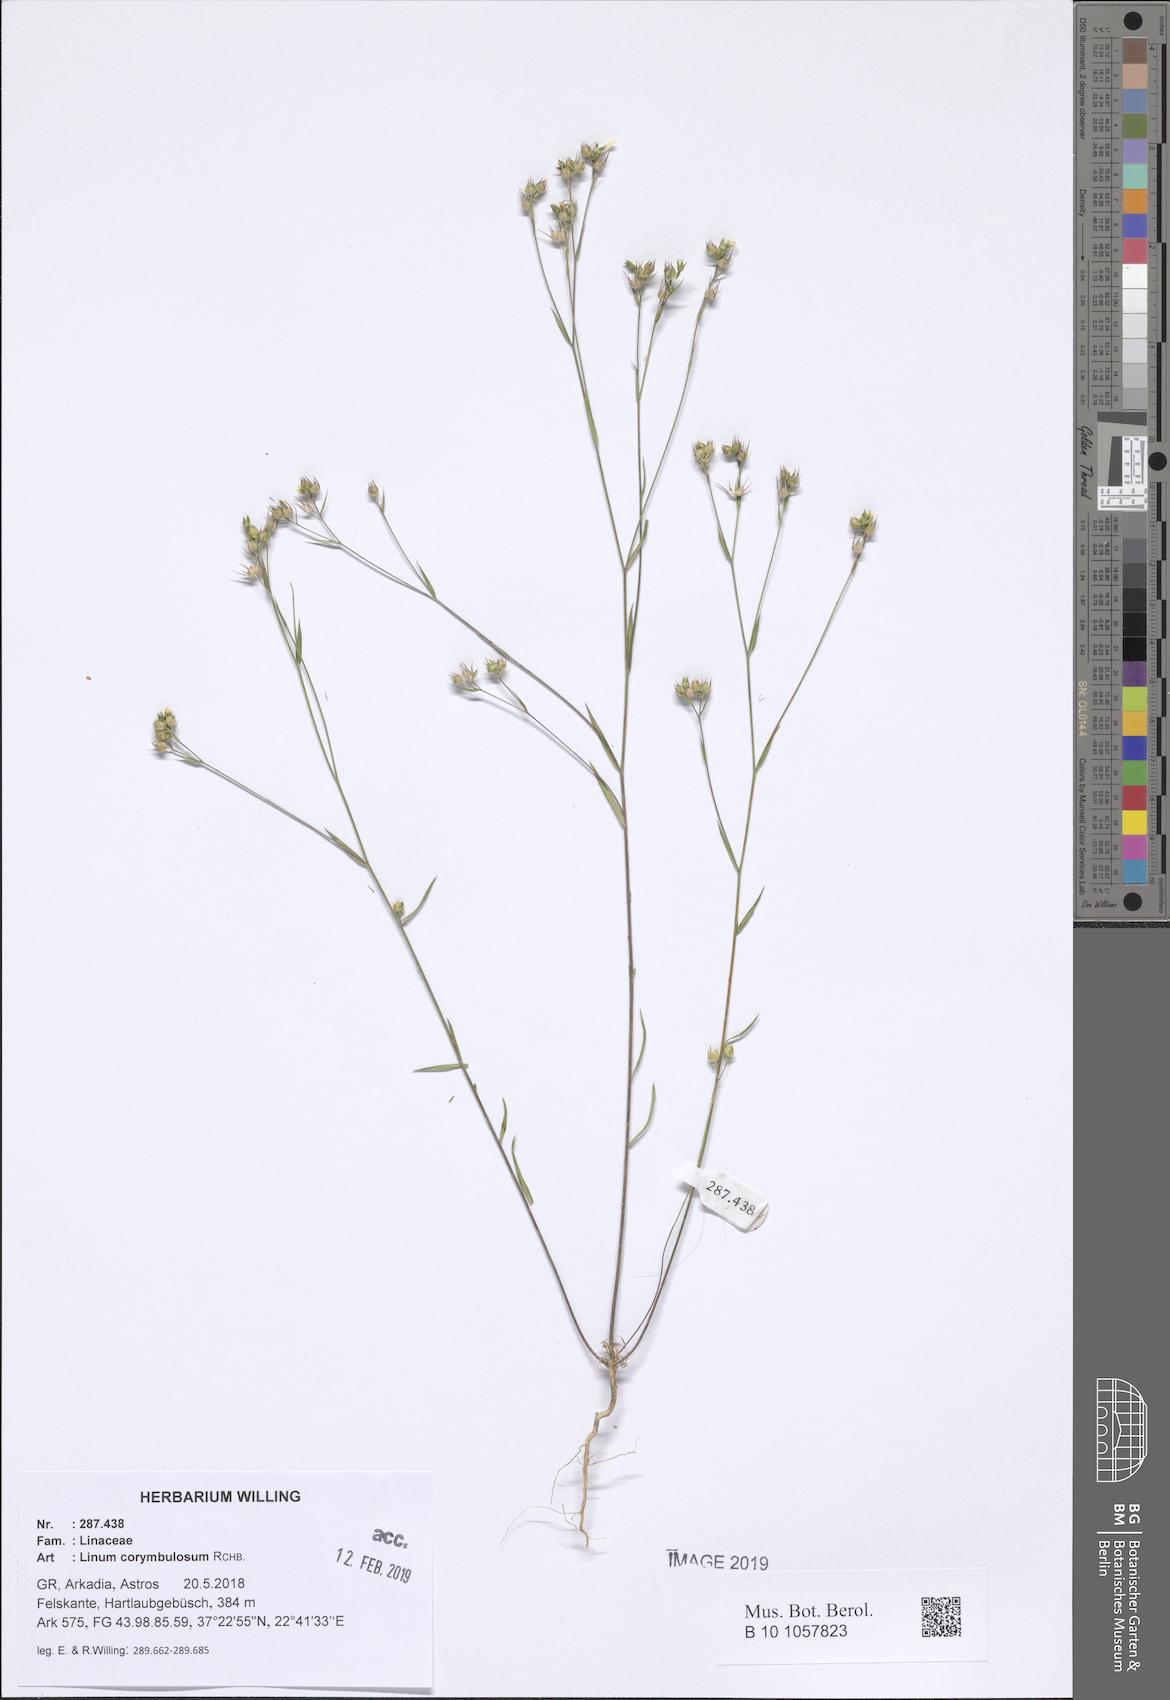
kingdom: Plantae
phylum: Tracheophyta
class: Magnoliopsida
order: Malpighiales
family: Linaceae
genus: Linum
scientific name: Linum corymbulosum
